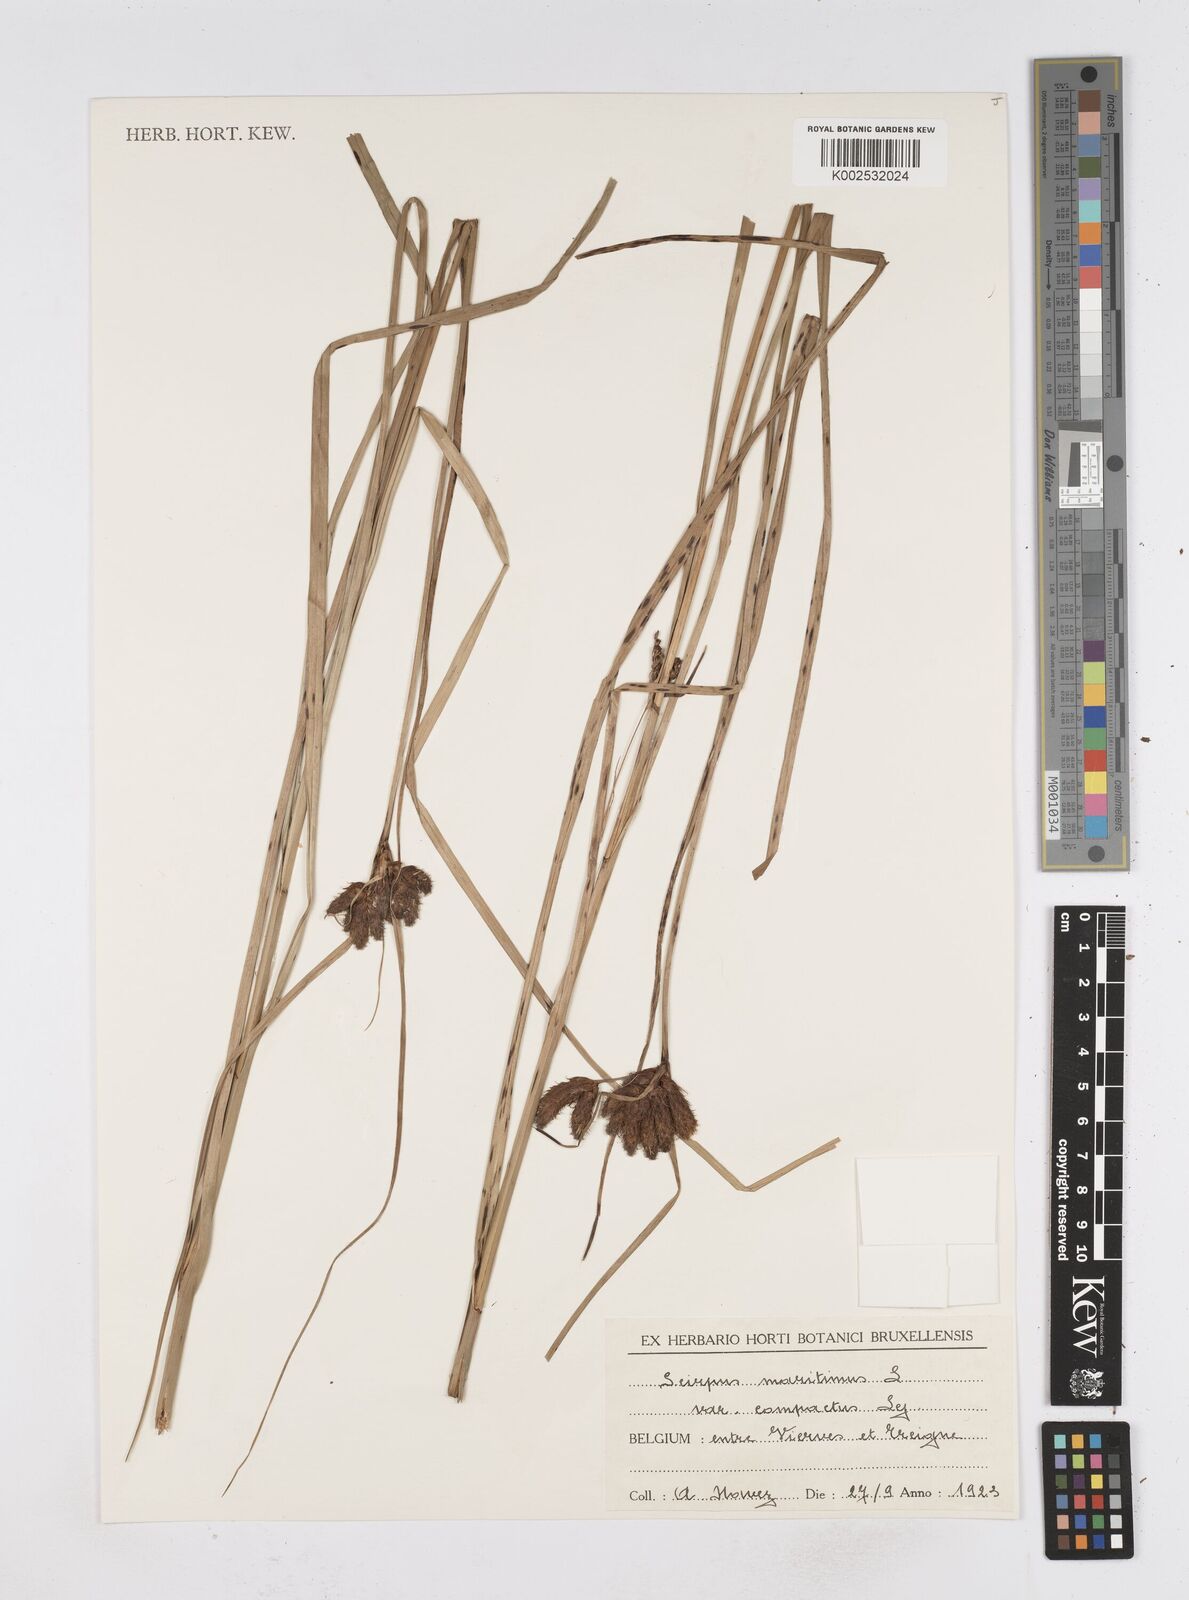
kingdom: Plantae
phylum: Tracheophyta
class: Liliopsida
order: Poales
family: Cyperaceae
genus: Bolboschoenus
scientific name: Bolboschoenus maritimus
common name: Sea club-rush
